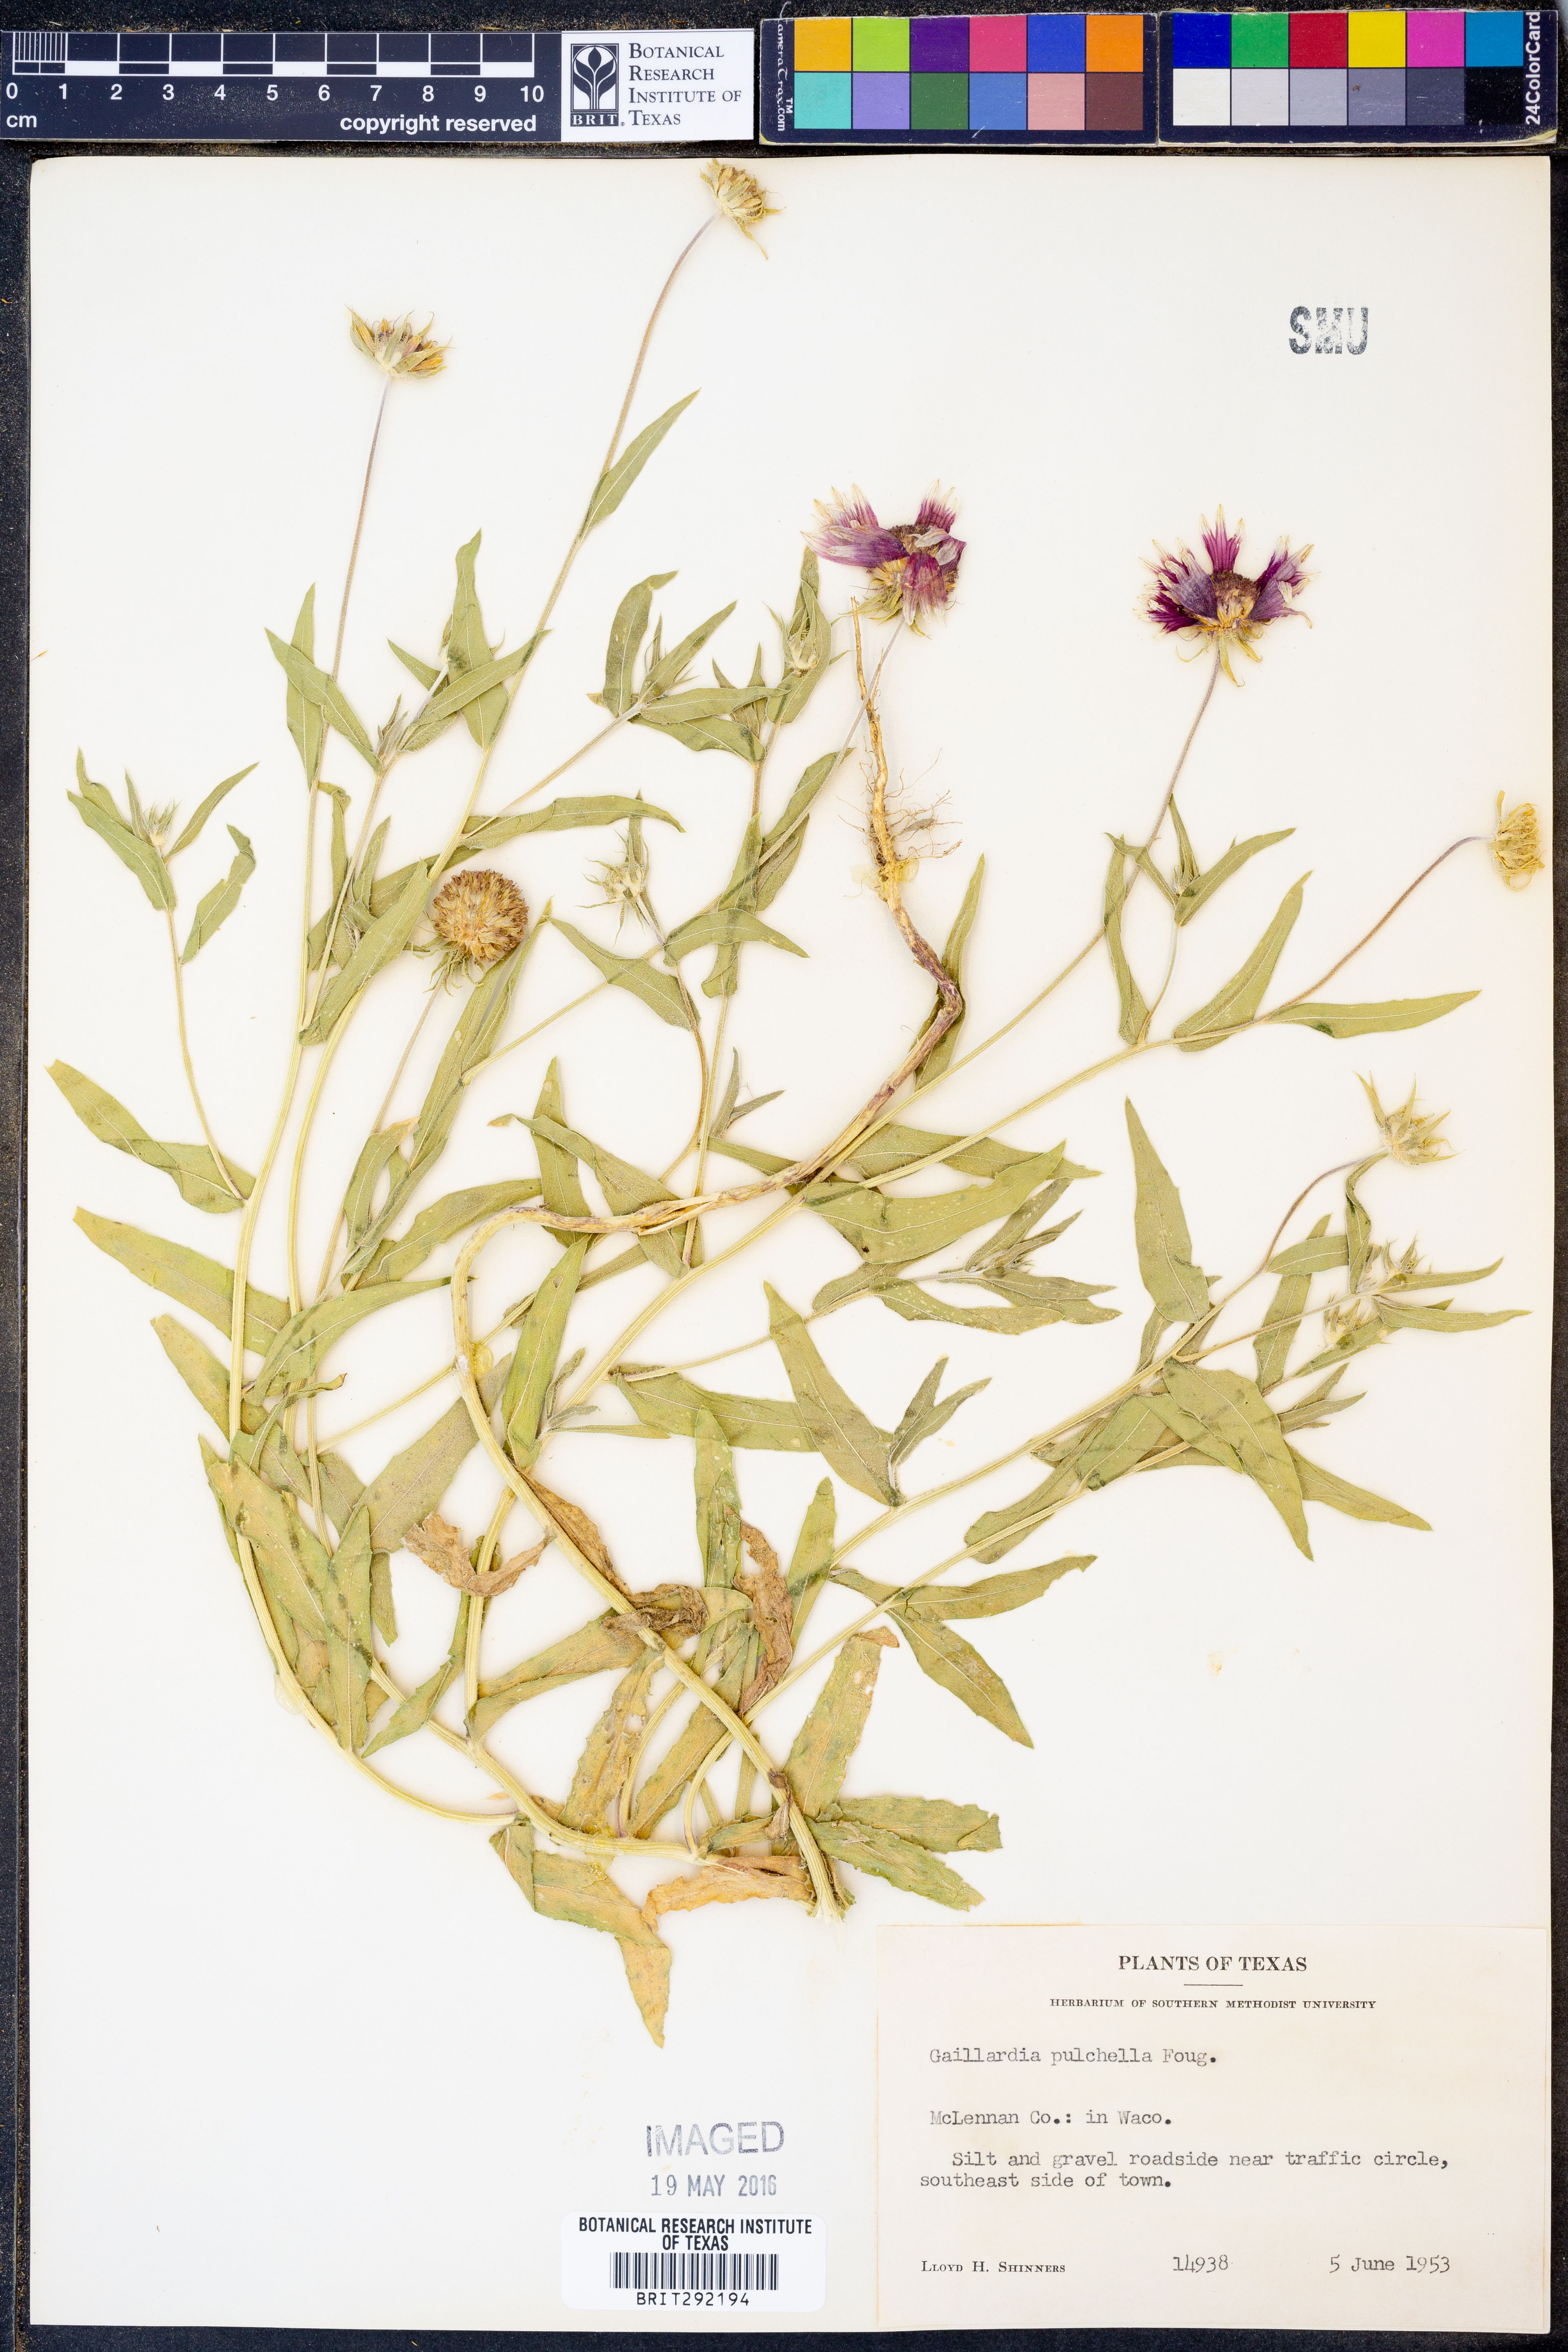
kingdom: Plantae
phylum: Tracheophyta
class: Magnoliopsida
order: Asterales
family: Asteraceae
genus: Gaillardia
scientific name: Gaillardia pulchella
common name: Firewheel
